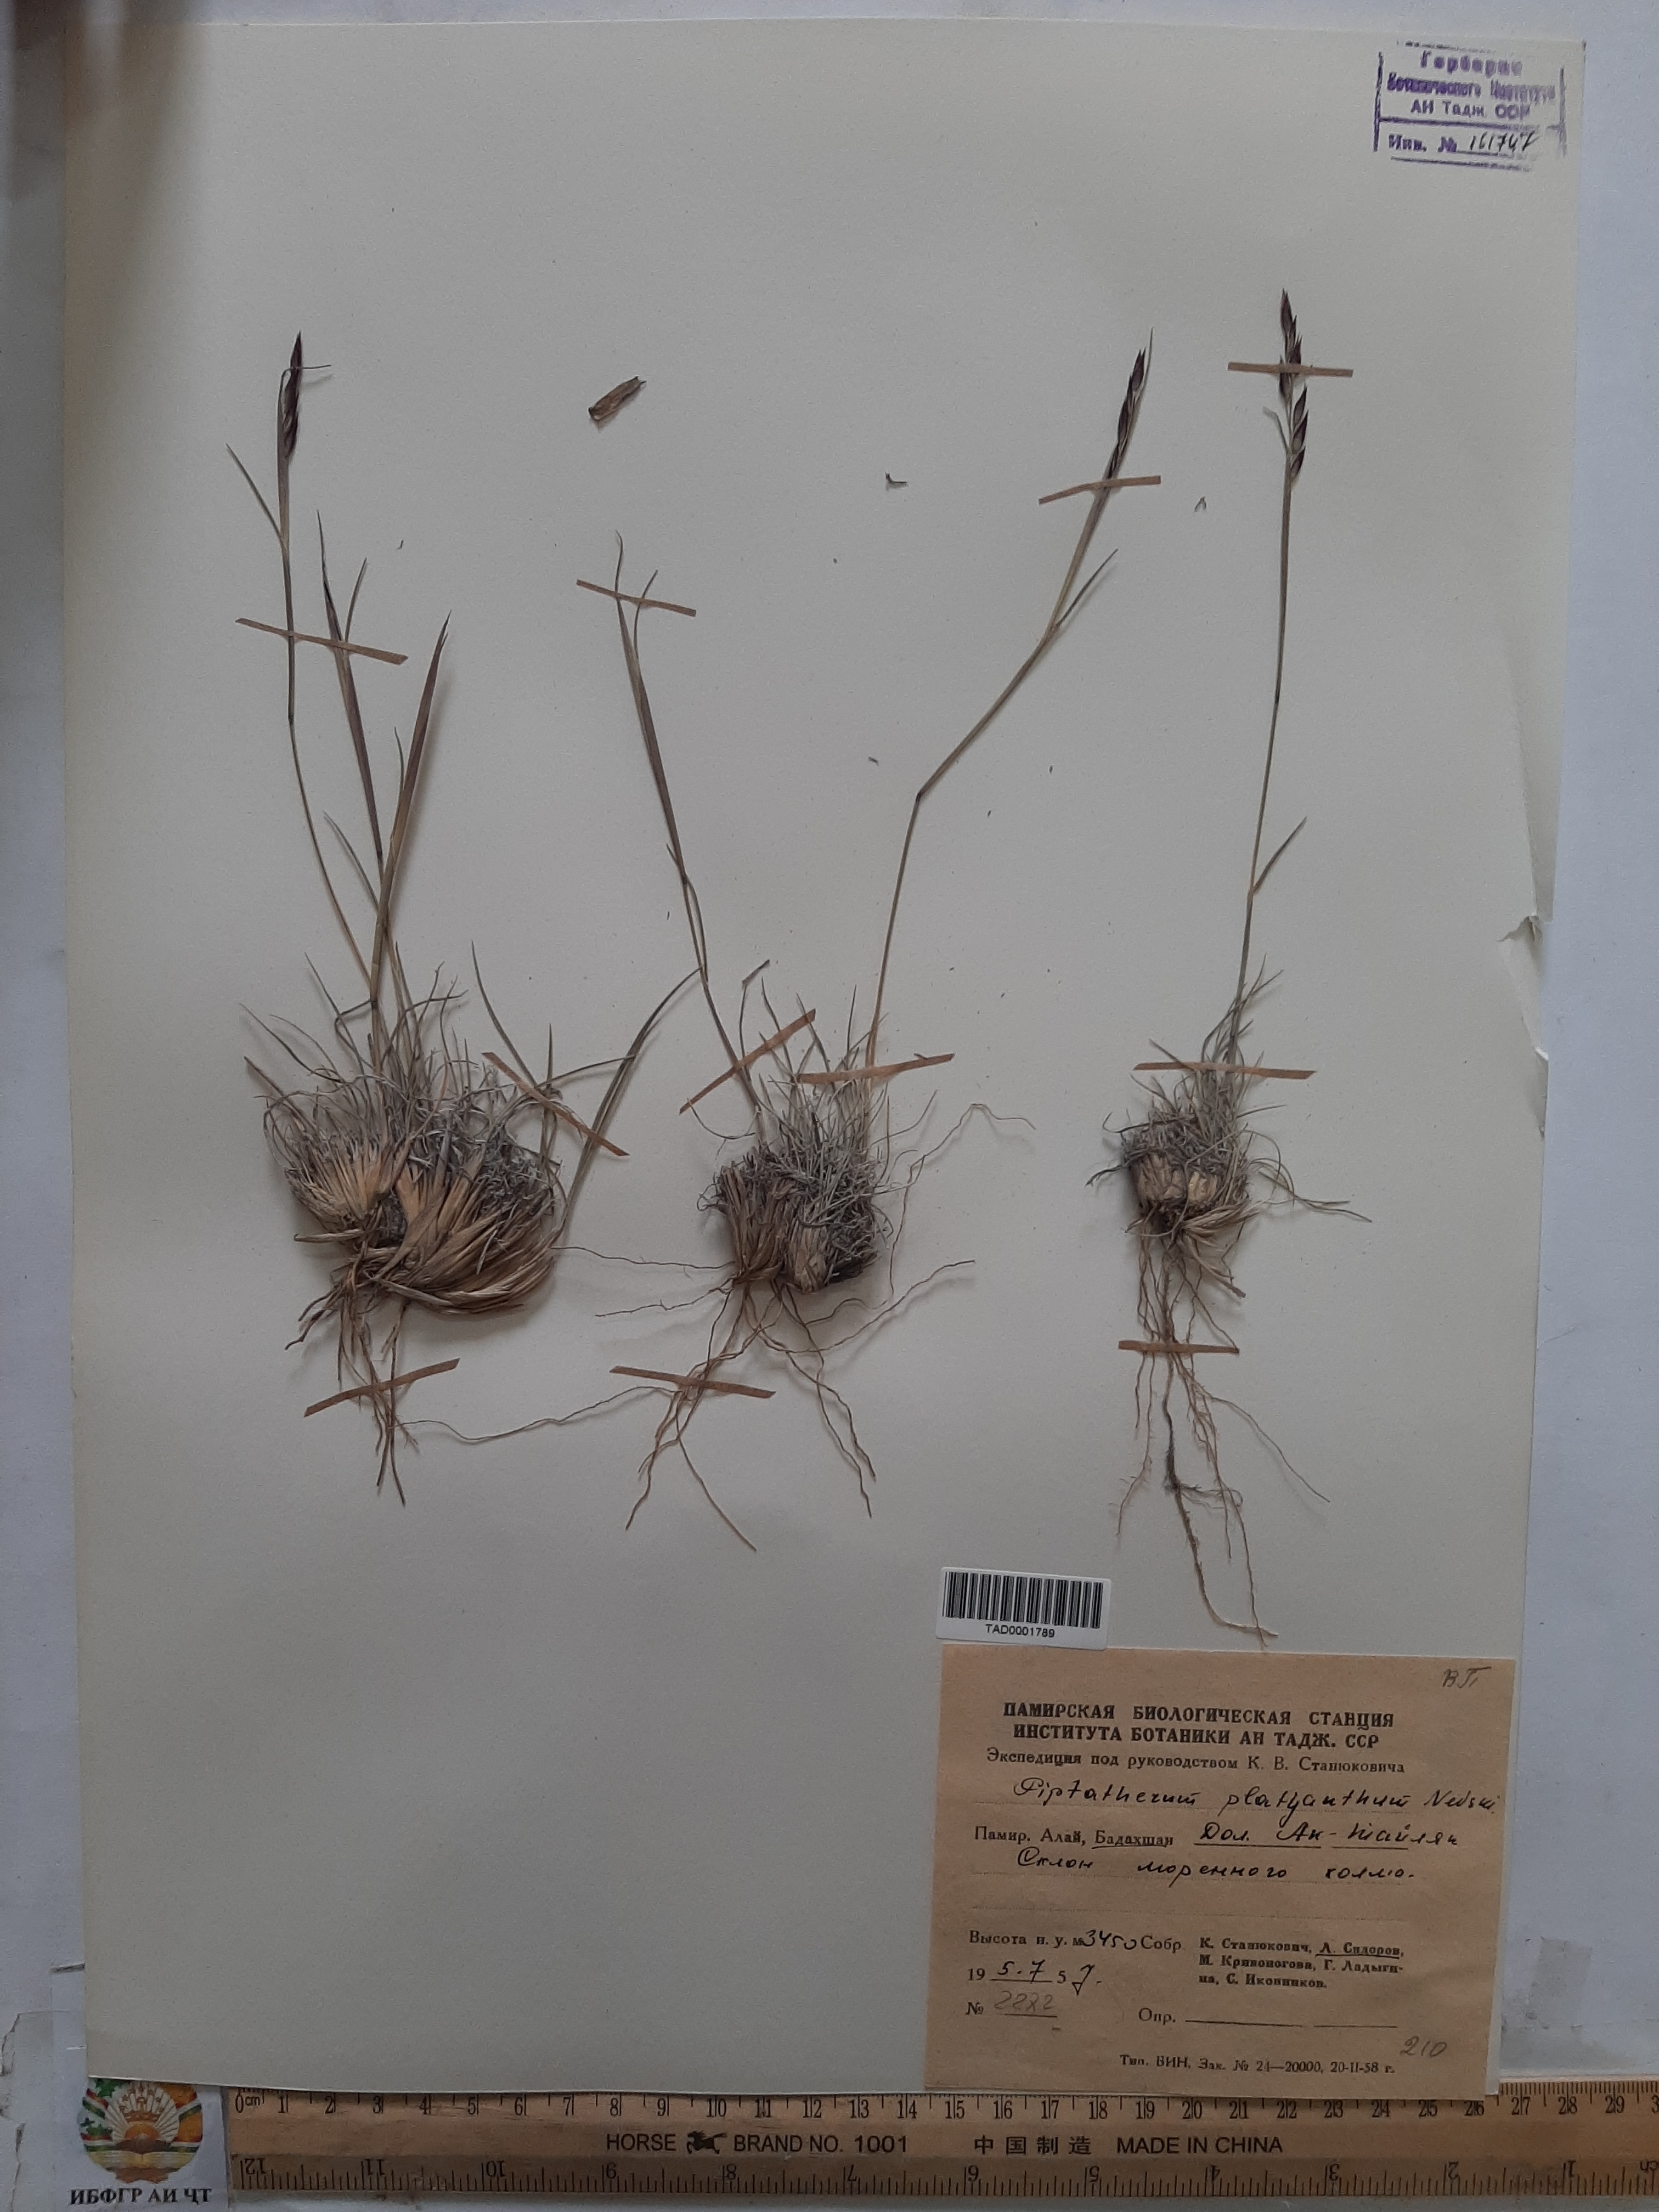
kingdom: Plantae
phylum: Tracheophyta
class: Liliopsida
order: Poales
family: Poaceae
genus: Piptatherum
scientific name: Piptatherum platyanthum
